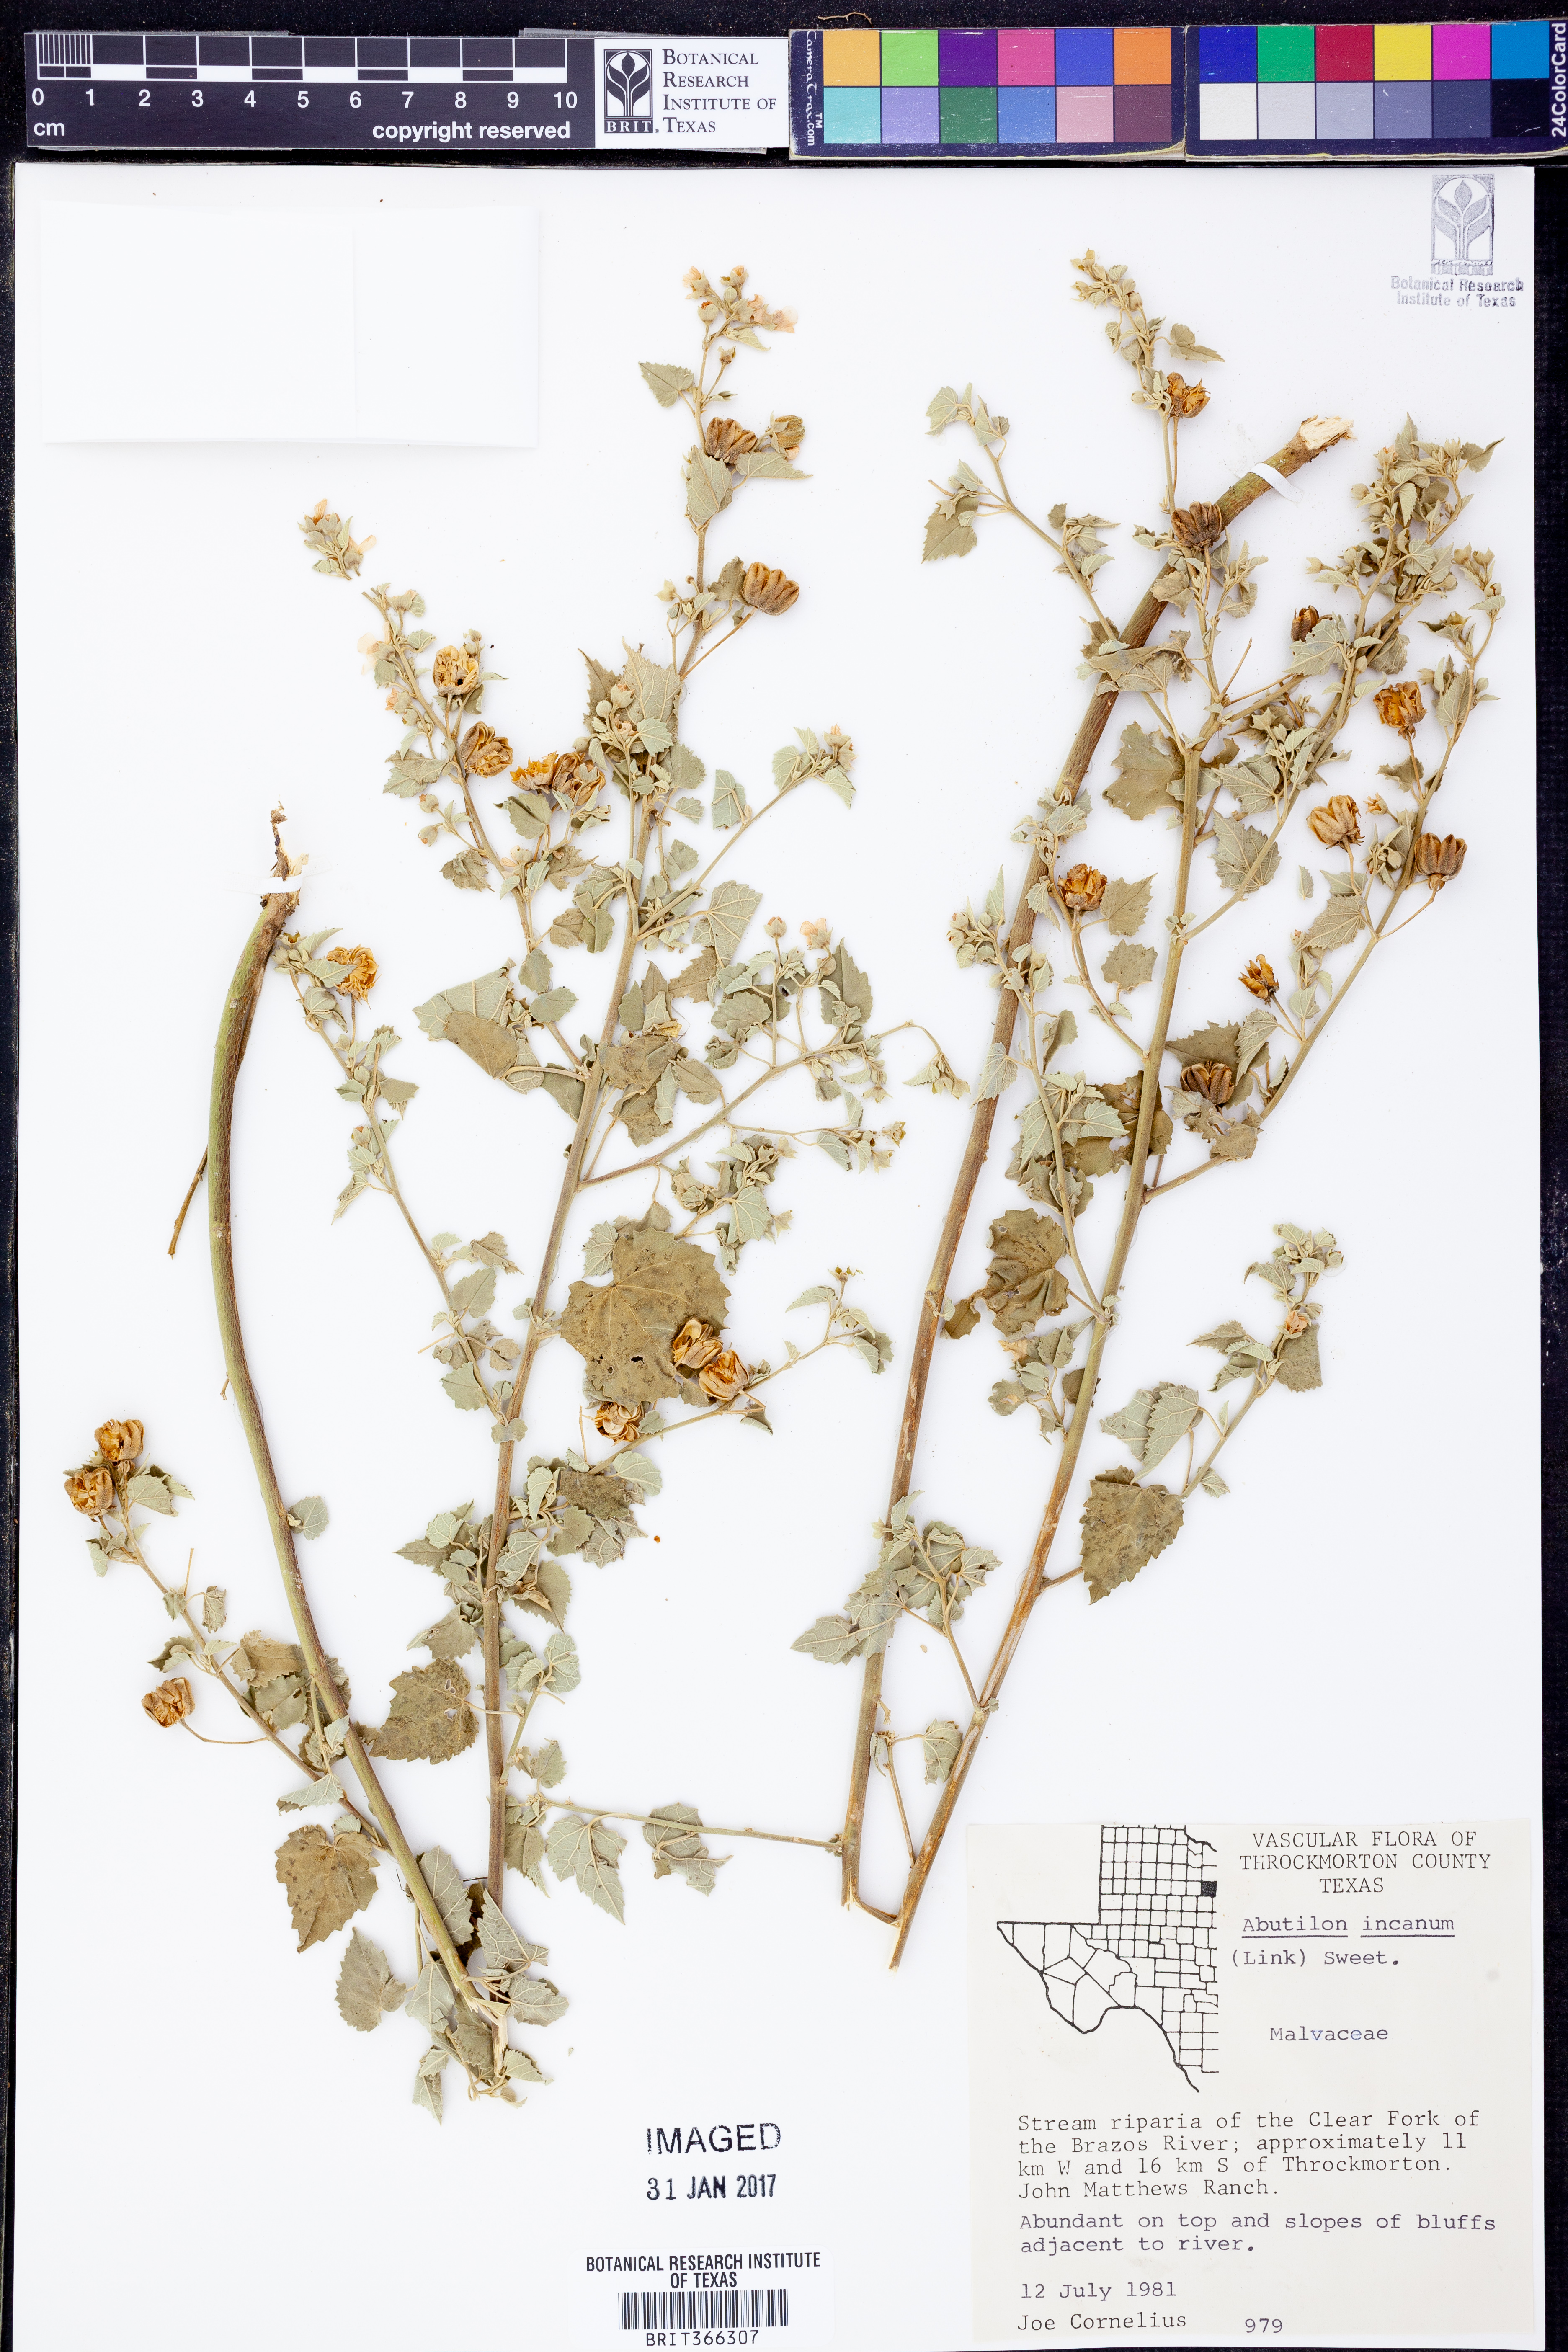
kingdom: Plantae
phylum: Tracheophyta
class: Magnoliopsida
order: Malvales
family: Malvaceae
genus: Abutilon
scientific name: Abutilon incanum
